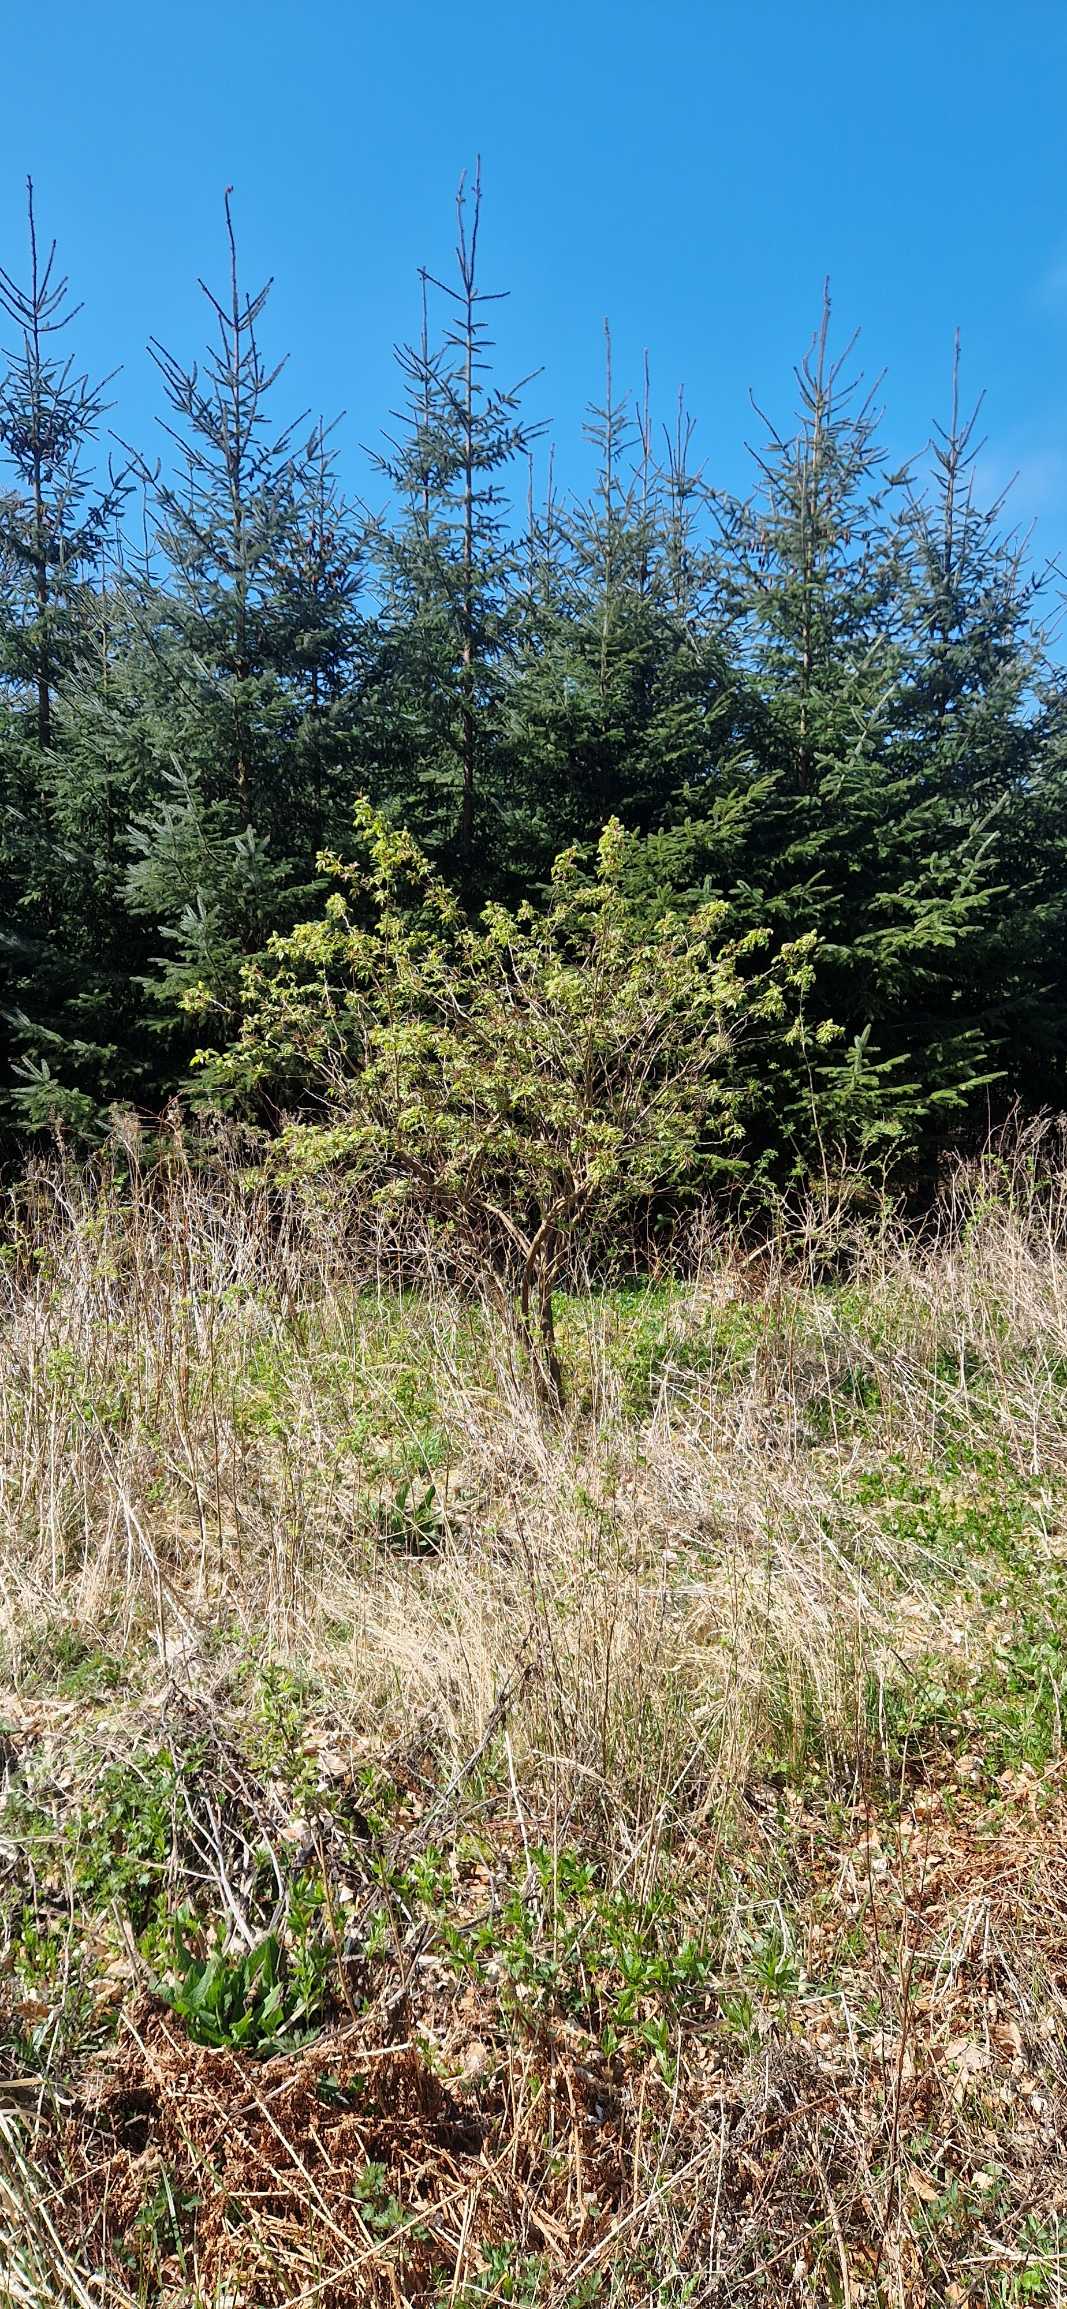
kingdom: Plantae
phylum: Tracheophyta
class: Magnoliopsida
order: Dipsacales
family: Viburnaceae
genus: Sambucus
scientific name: Sambucus racemosa
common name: Drue-hyld
